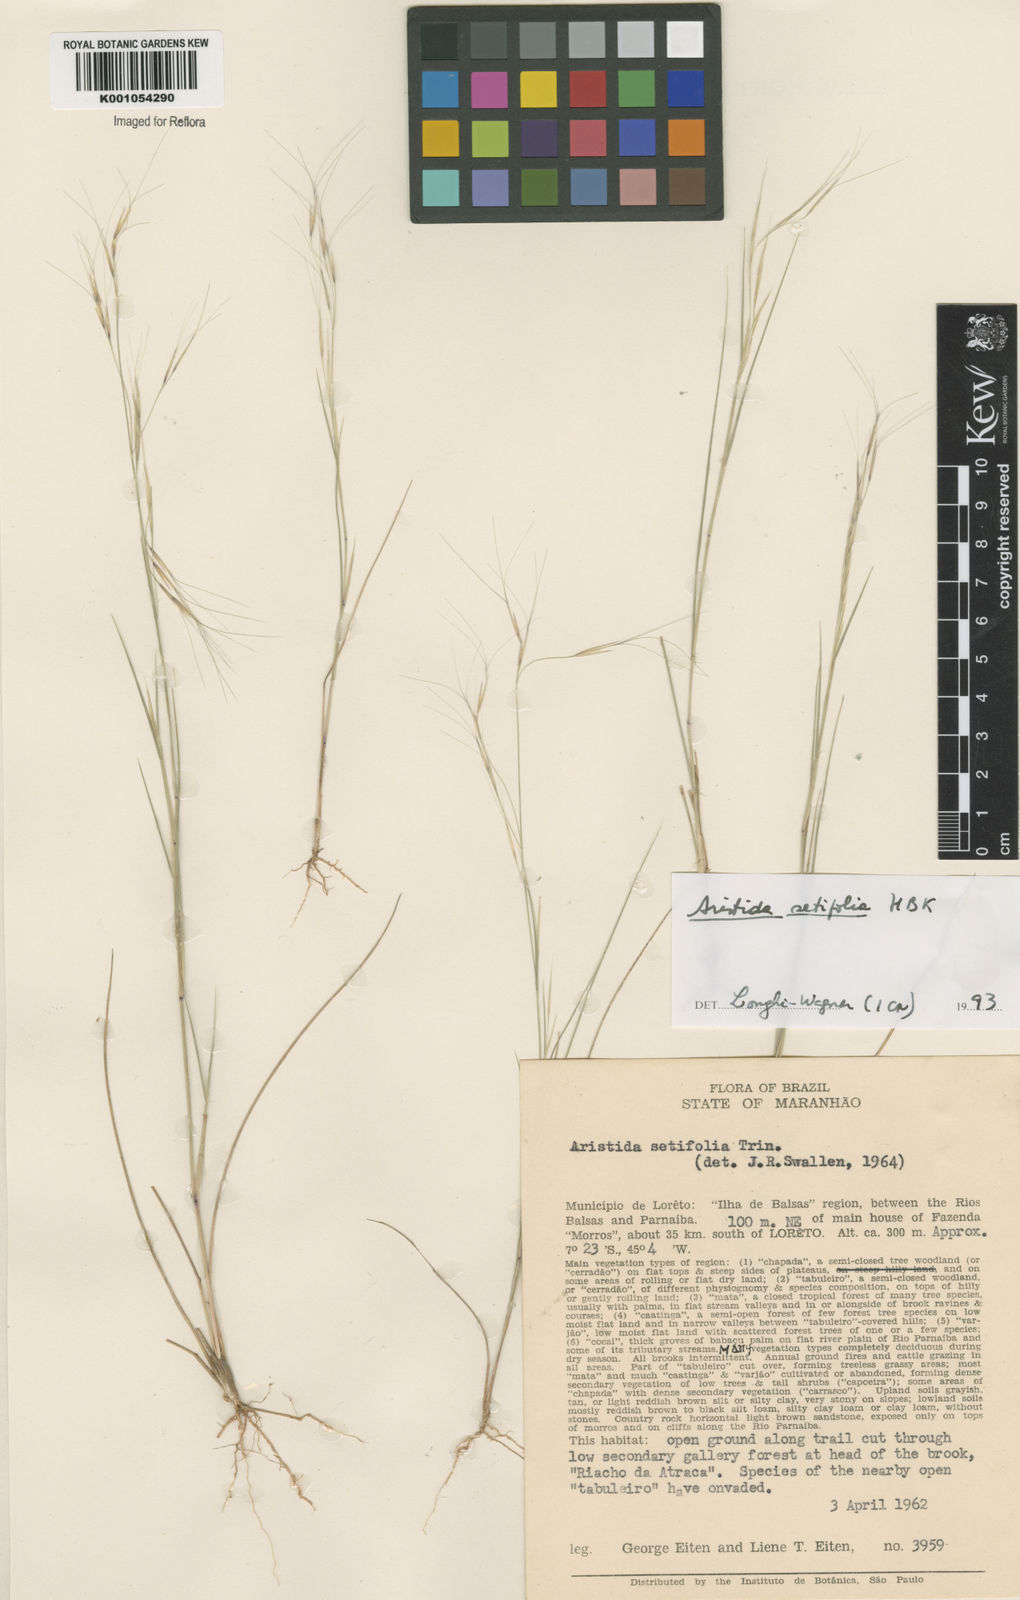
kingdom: Plantae
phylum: Tracheophyta
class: Liliopsida
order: Poales
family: Poaceae
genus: Aristida
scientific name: Aristida setifolia
